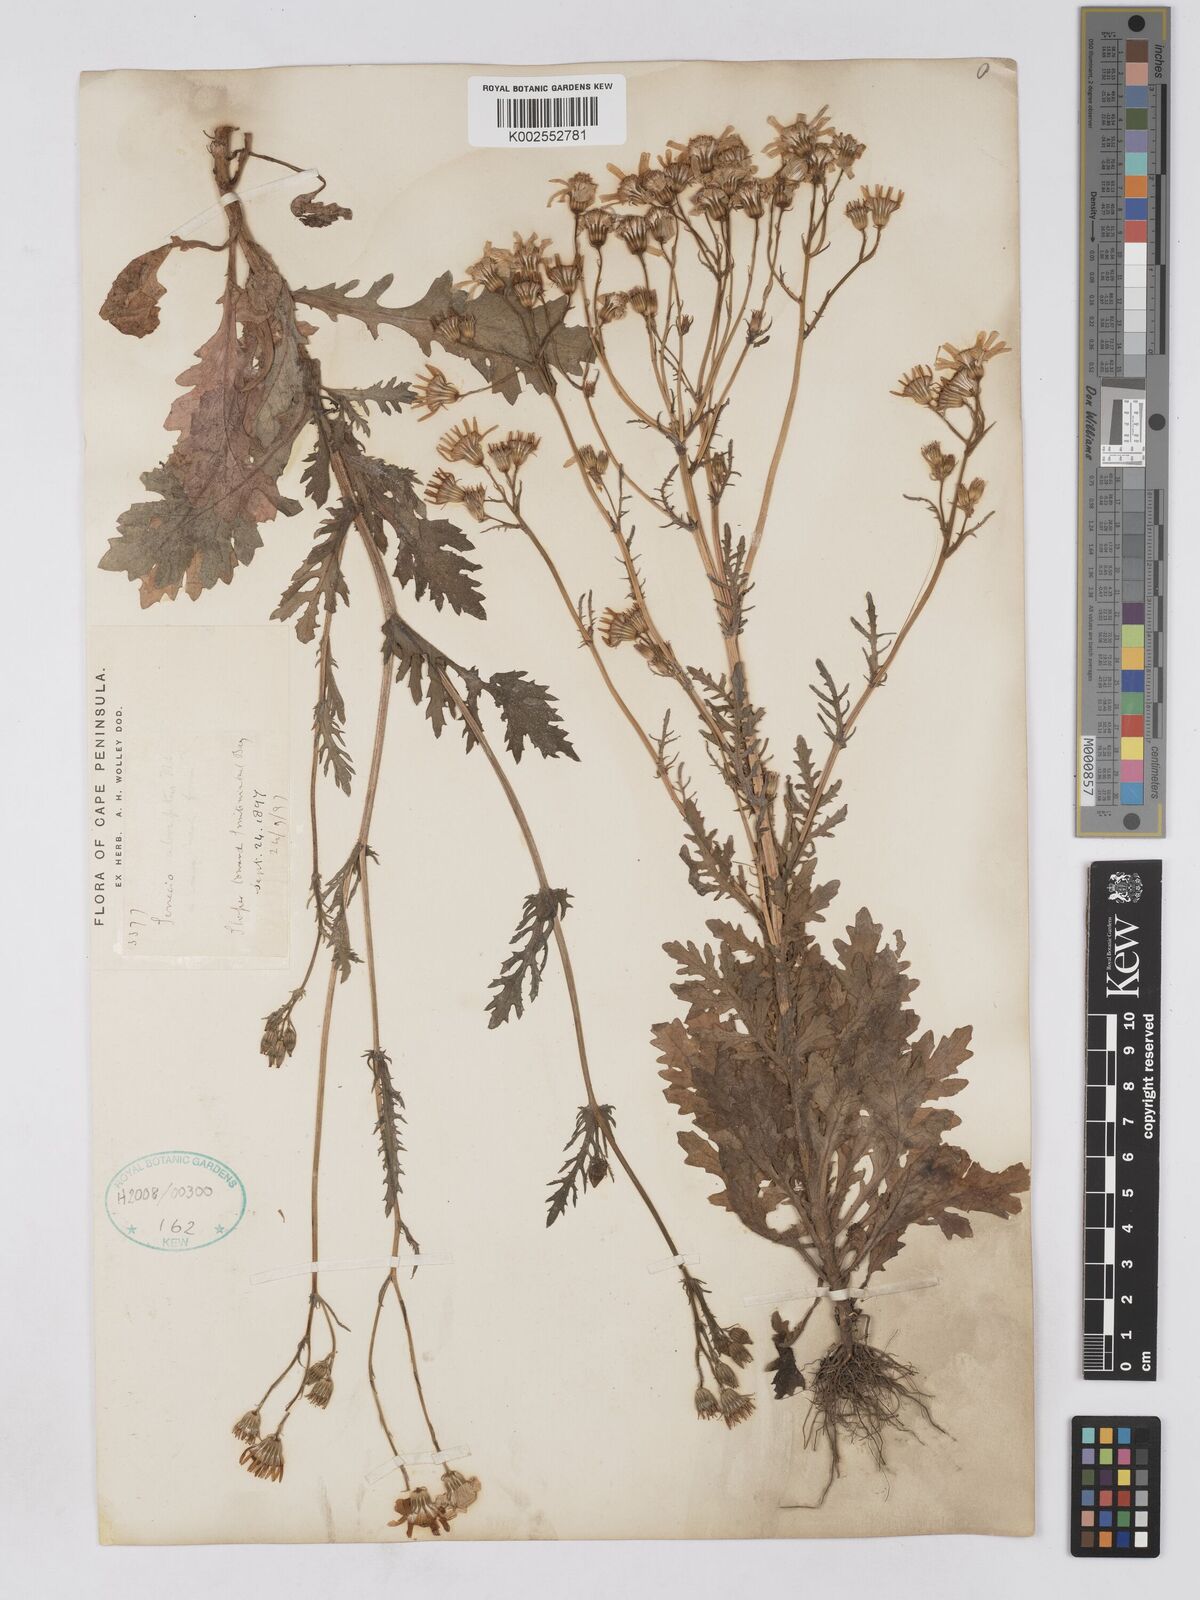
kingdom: Plantae
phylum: Tracheophyta
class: Magnoliopsida
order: Asterales
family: Asteraceae
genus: Senecio
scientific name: Senecio abruptus
